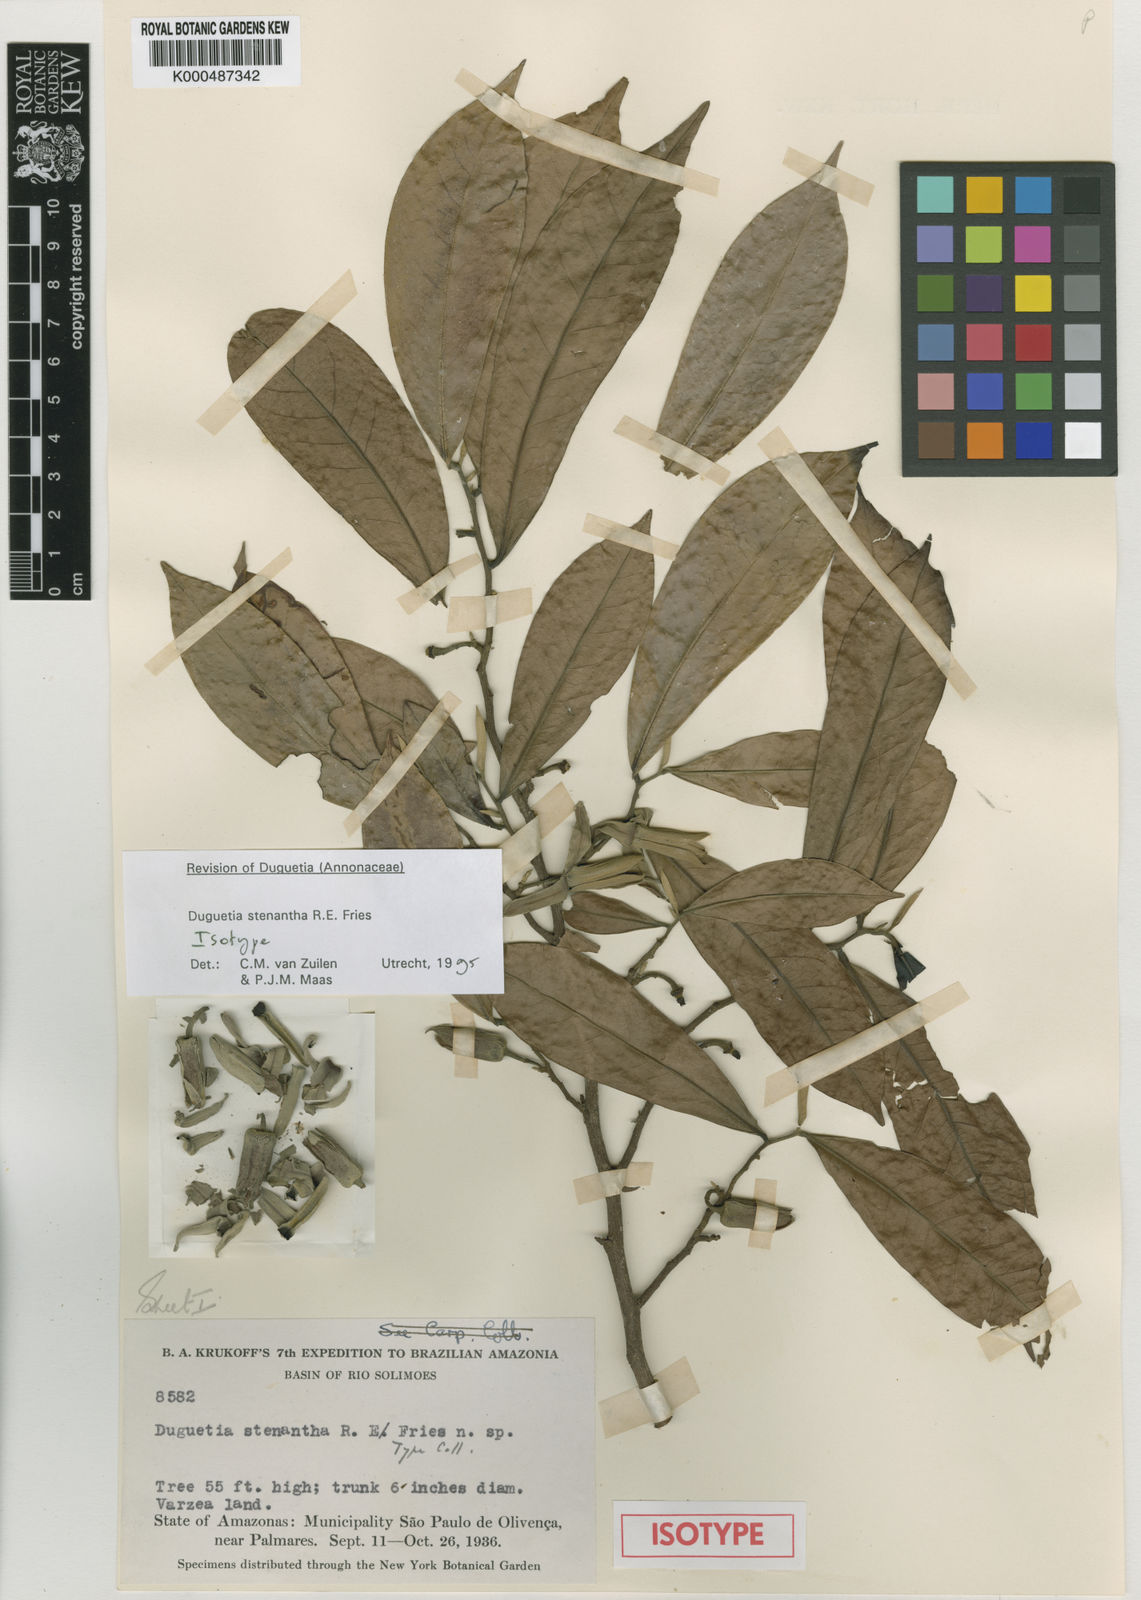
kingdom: Plantae
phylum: Tracheophyta
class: Magnoliopsida
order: Magnoliales
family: Annonaceae
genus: Duguetia
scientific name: Duguetia stenantha
